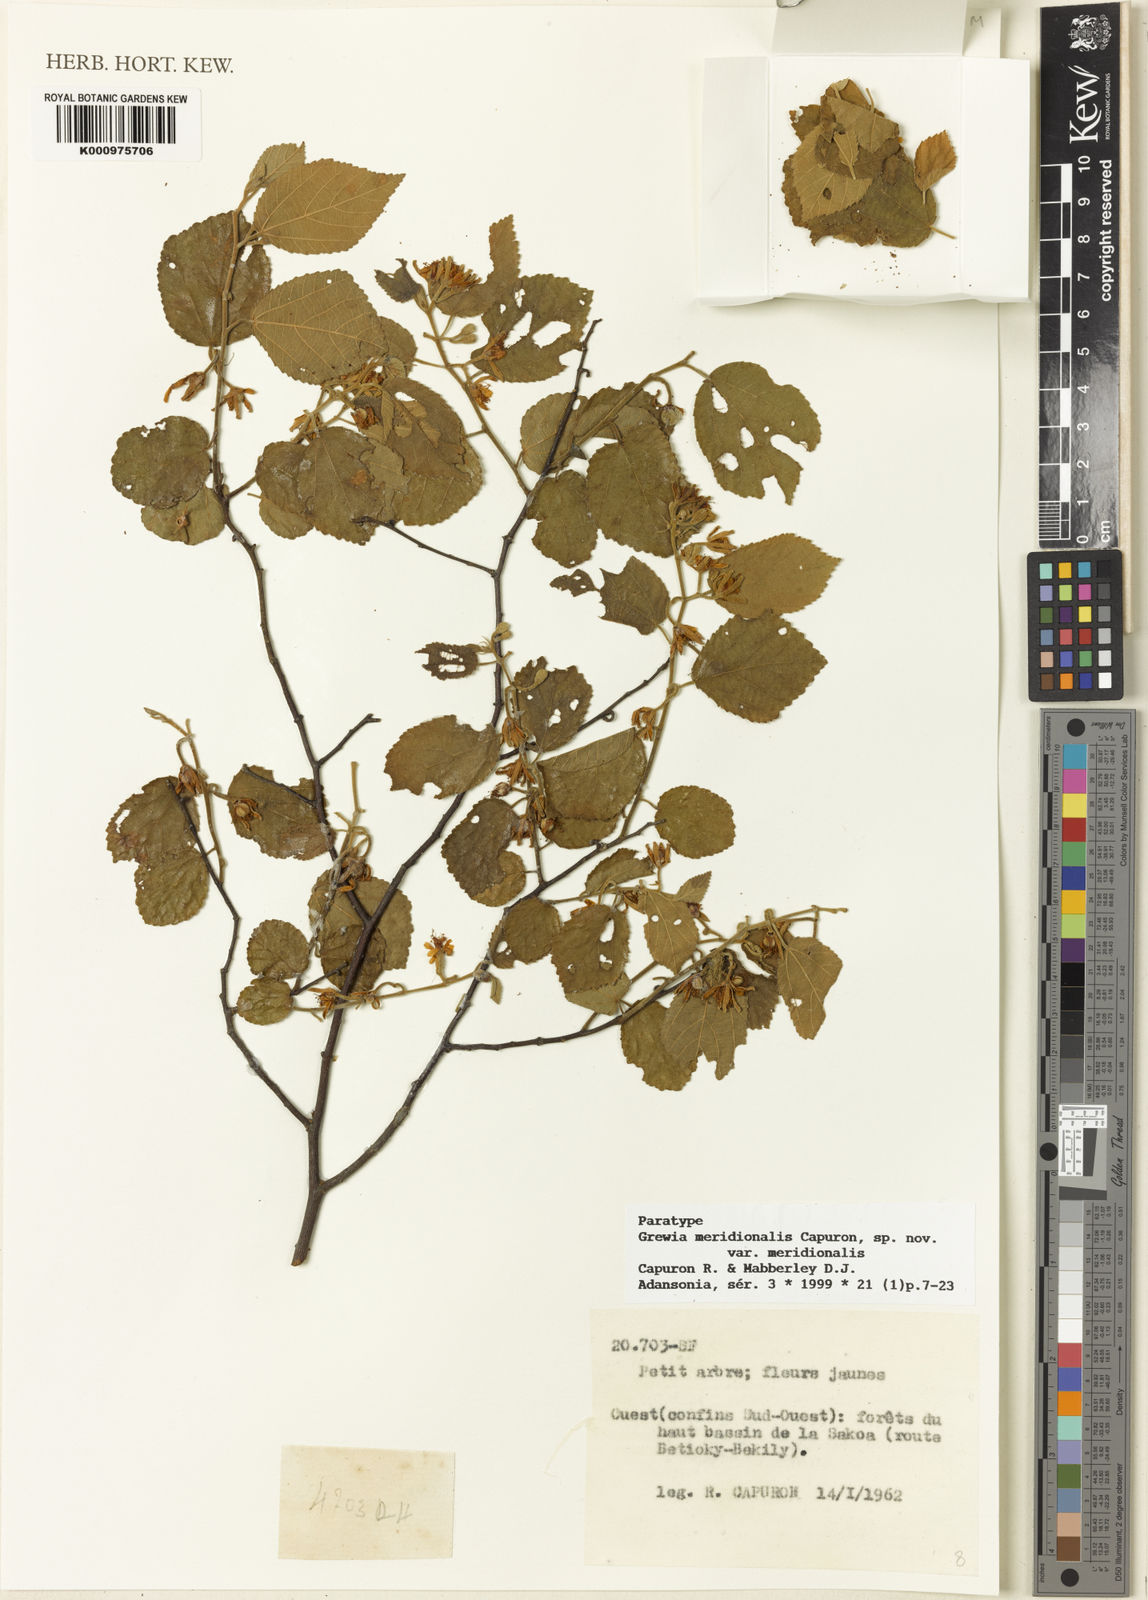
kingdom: Plantae
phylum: Tracheophyta
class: Magnoliopsida
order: Malvales
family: Malvaceae
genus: Grewia
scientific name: Grewia meridionalis
